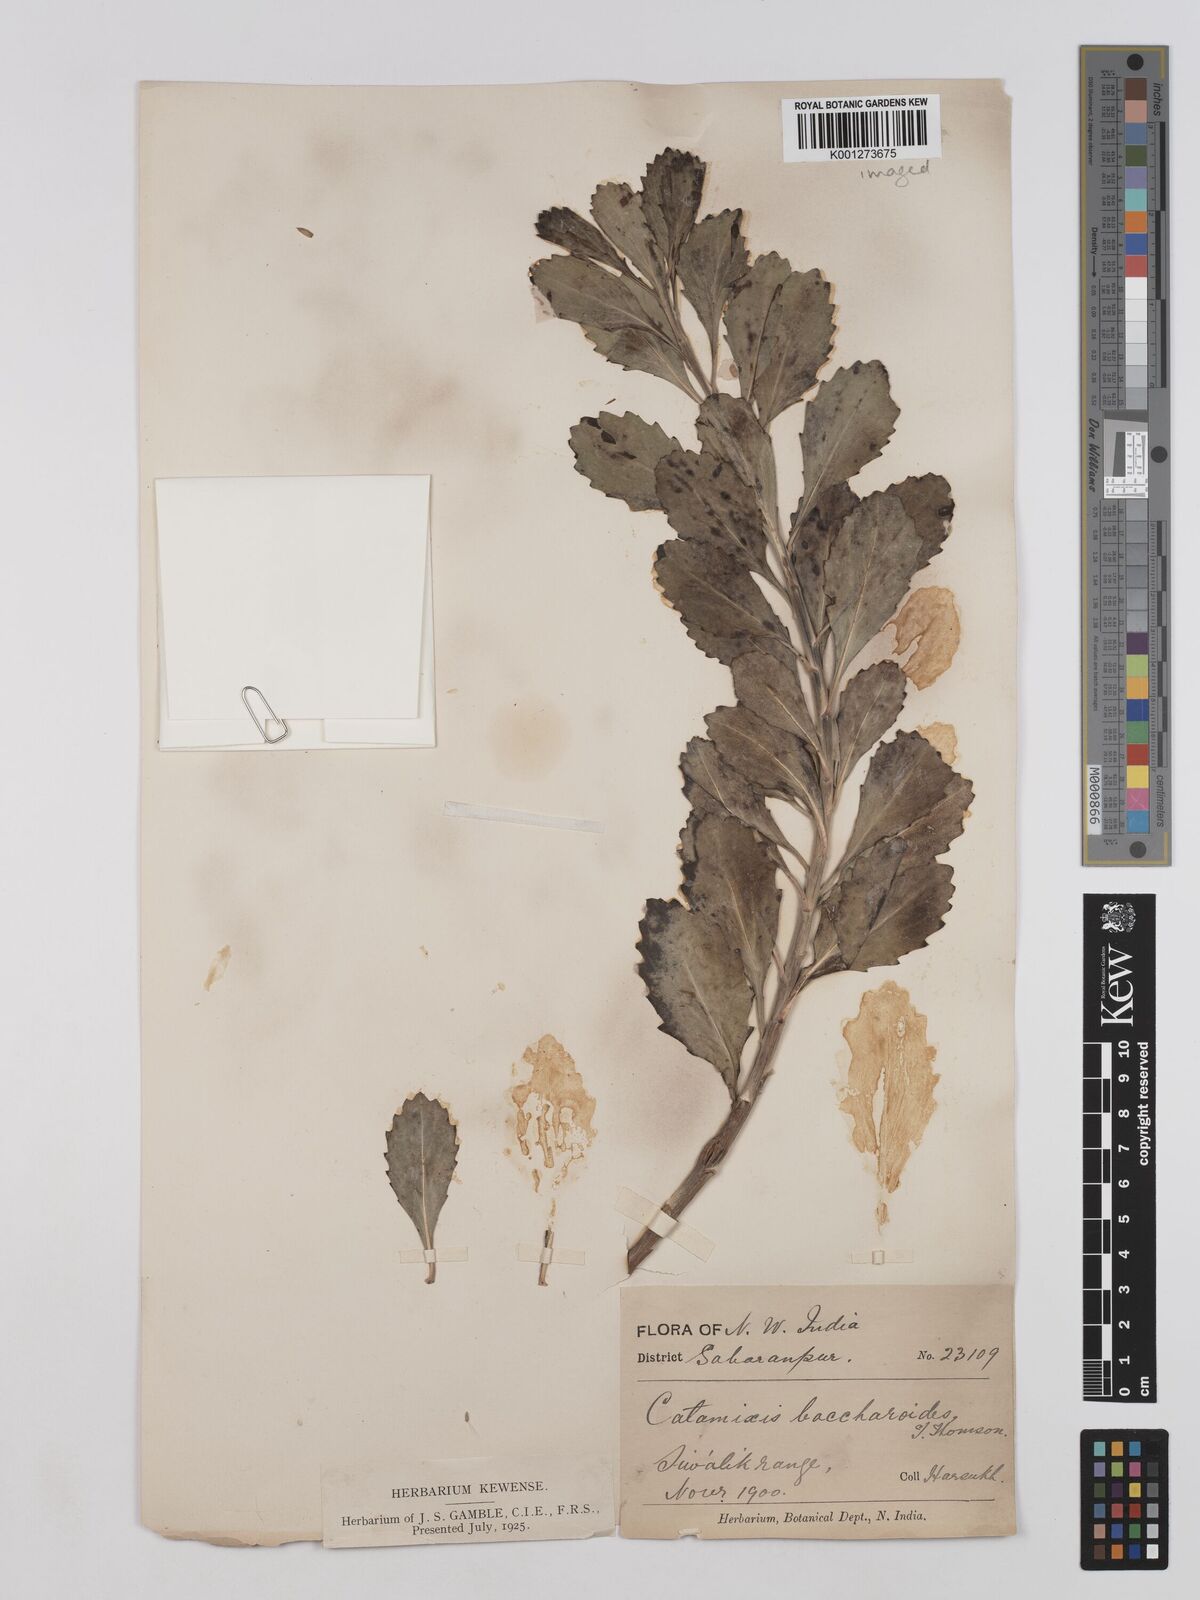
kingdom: Plantae
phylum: Tracheophyta
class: Magnoliopsida
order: Asterales
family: Asteraceae
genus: Catamixis
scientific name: Catamixis baccharoides
